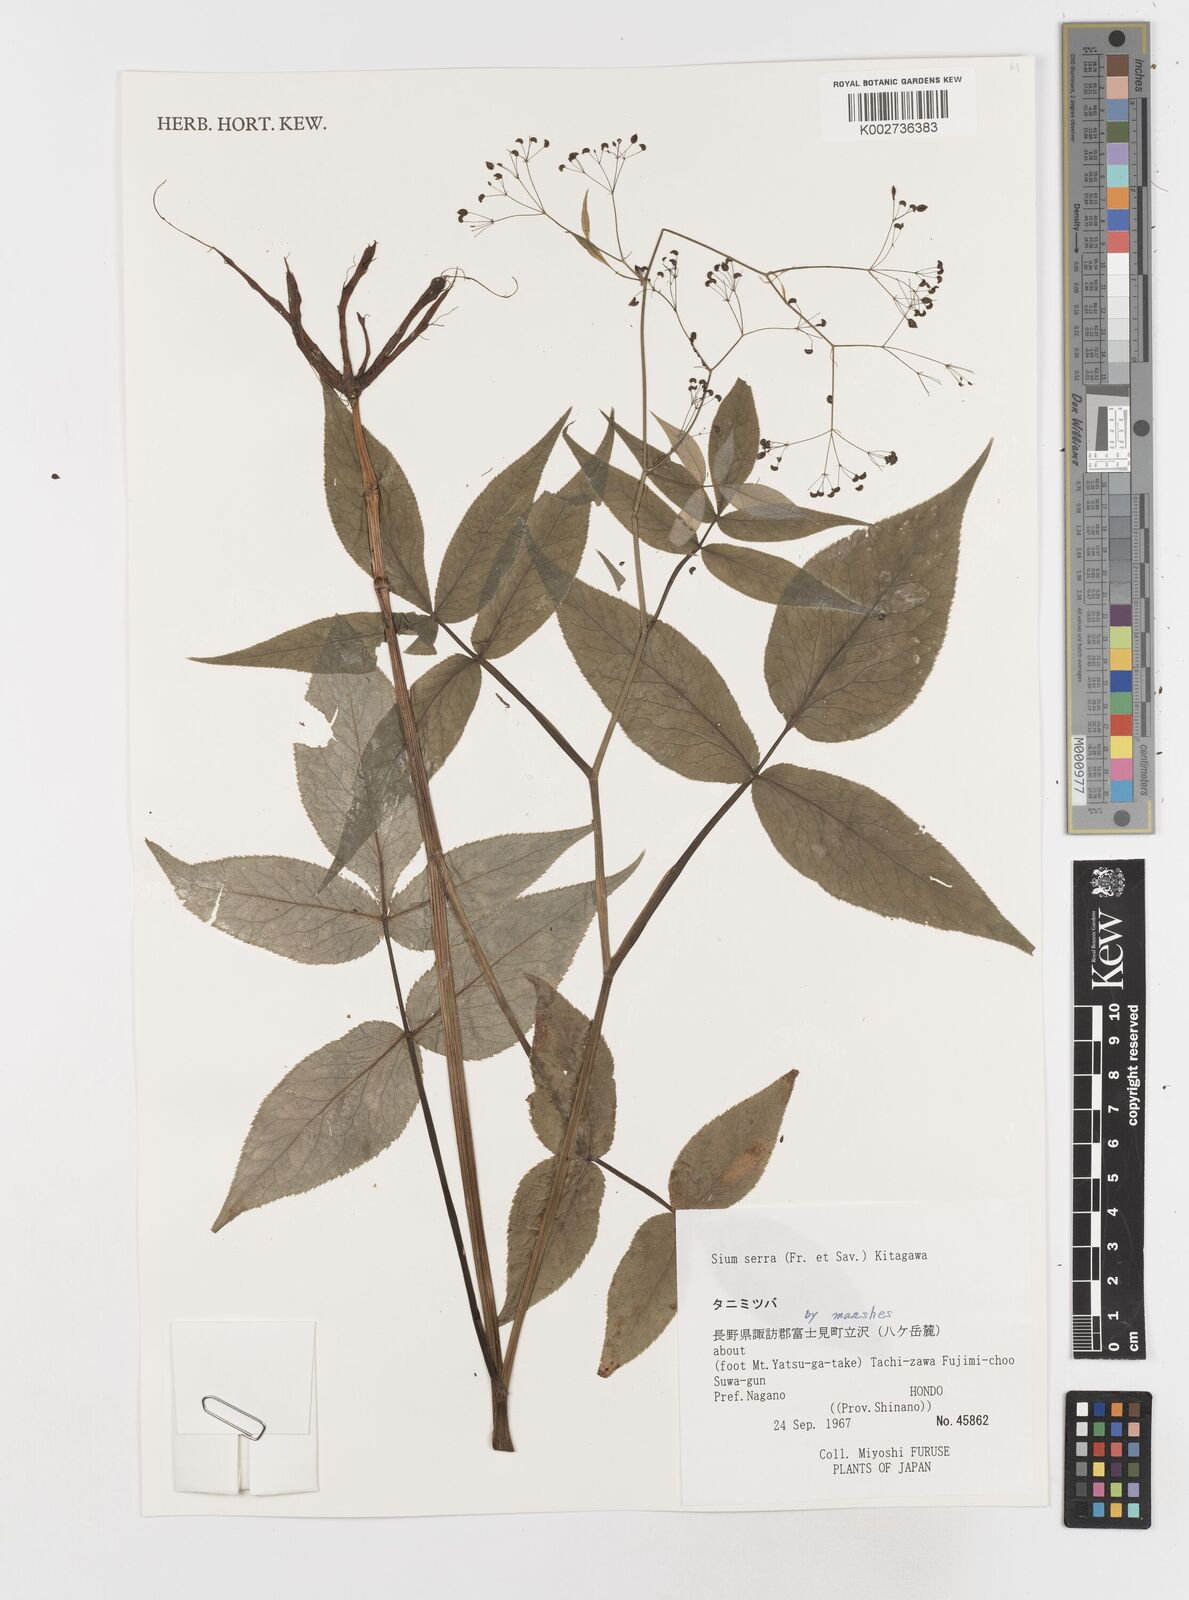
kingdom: Plantae
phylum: Tracheophyta
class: Magnoliopsida
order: Apiales
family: Apiaceae
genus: Sium
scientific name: Sium serra
